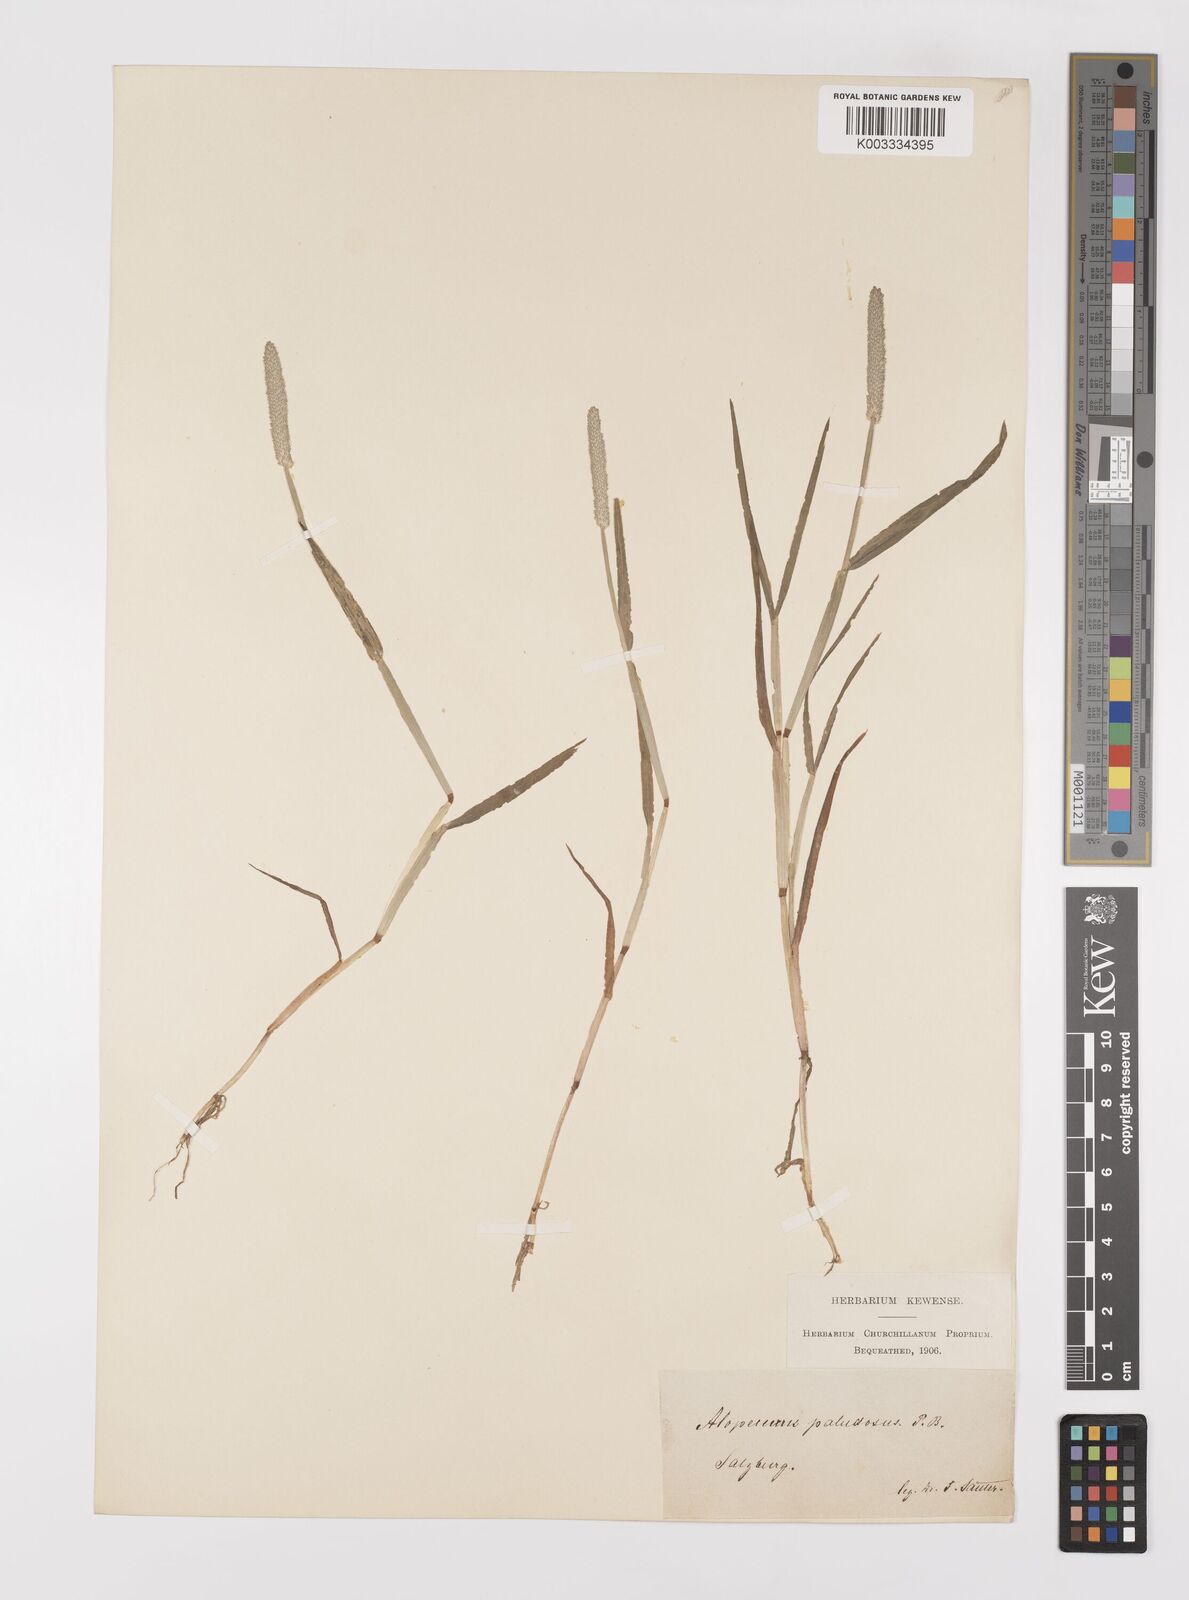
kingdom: Plantae
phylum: Tracheophyta
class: Liliopsida
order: Poales
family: Poaceae
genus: Alopecurus
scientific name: Alopecurus aequalis
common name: Orange foxtail
